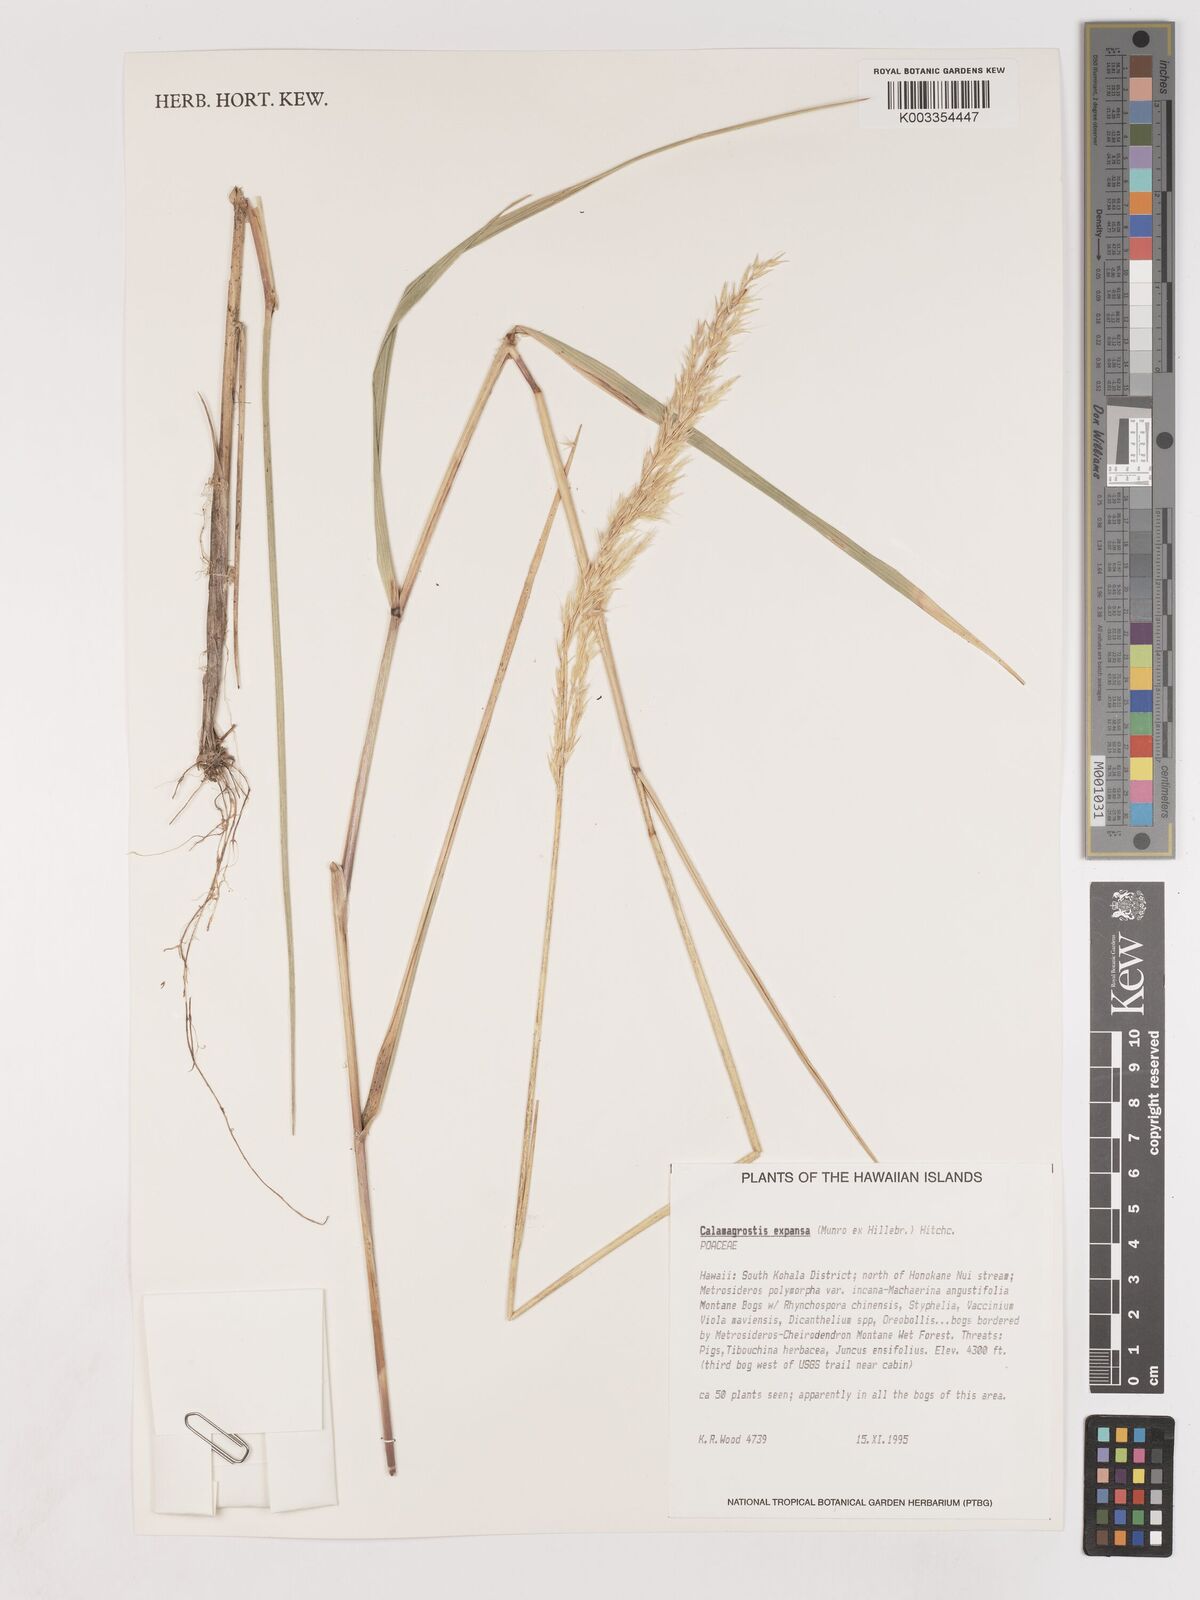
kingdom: Plantae
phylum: Tracheophyta
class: Liliopsida
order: Poales
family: Poaceae
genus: Calamagrostis
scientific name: Calamagrostis expansa
